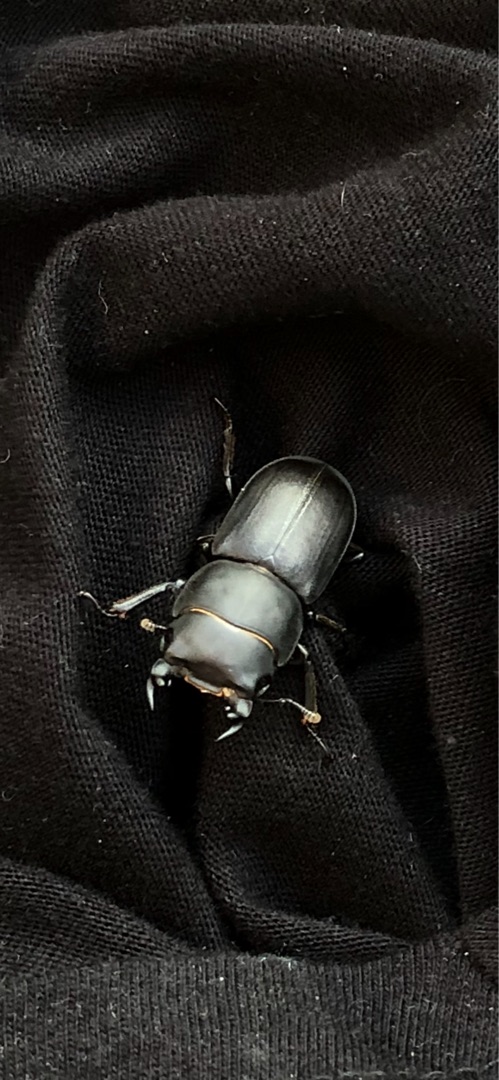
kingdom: Animalia
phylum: Arthropoda
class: Insecta
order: Coleoptera
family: Lucanidae
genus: Dorcus
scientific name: Dorcus parallelipipedus
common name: Bøghjort
